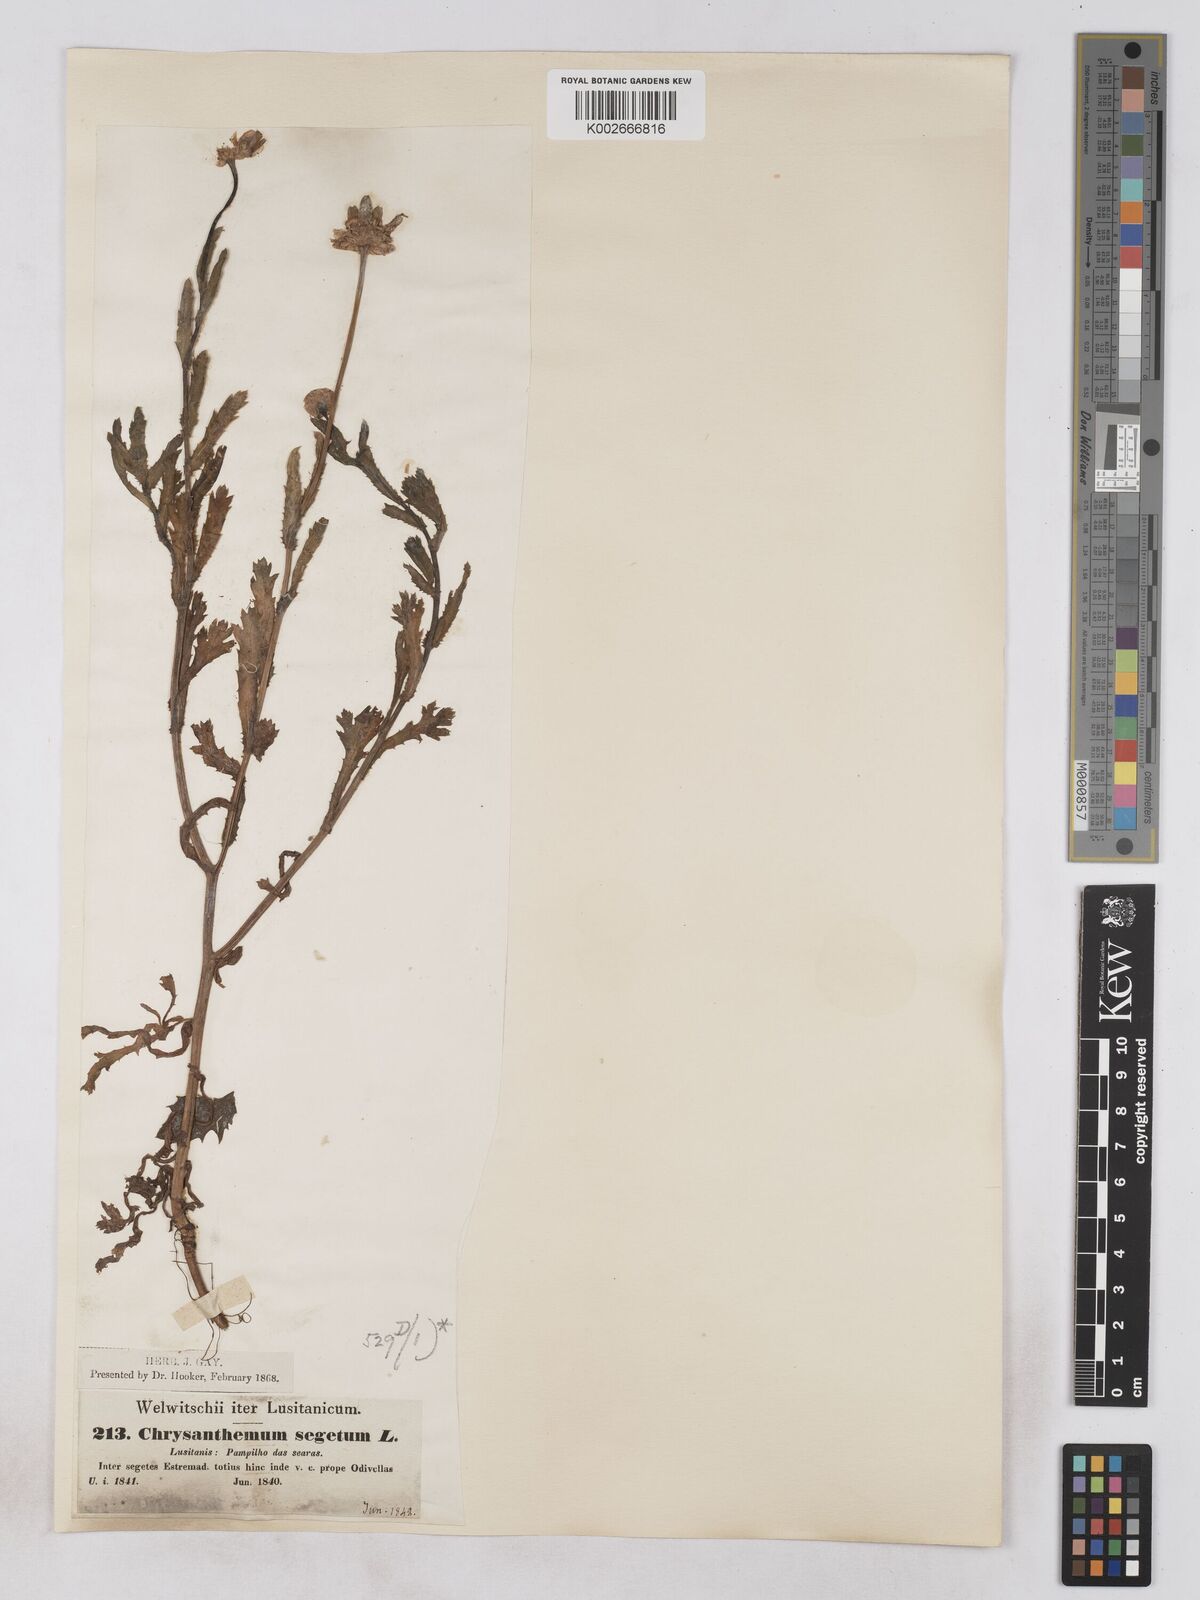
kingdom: Plantae
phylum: Tracheophyta
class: Magnoliopsida
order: Asterales
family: Asteraceae
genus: Glebionis
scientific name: Glebionis segetum
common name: Corndaisy
